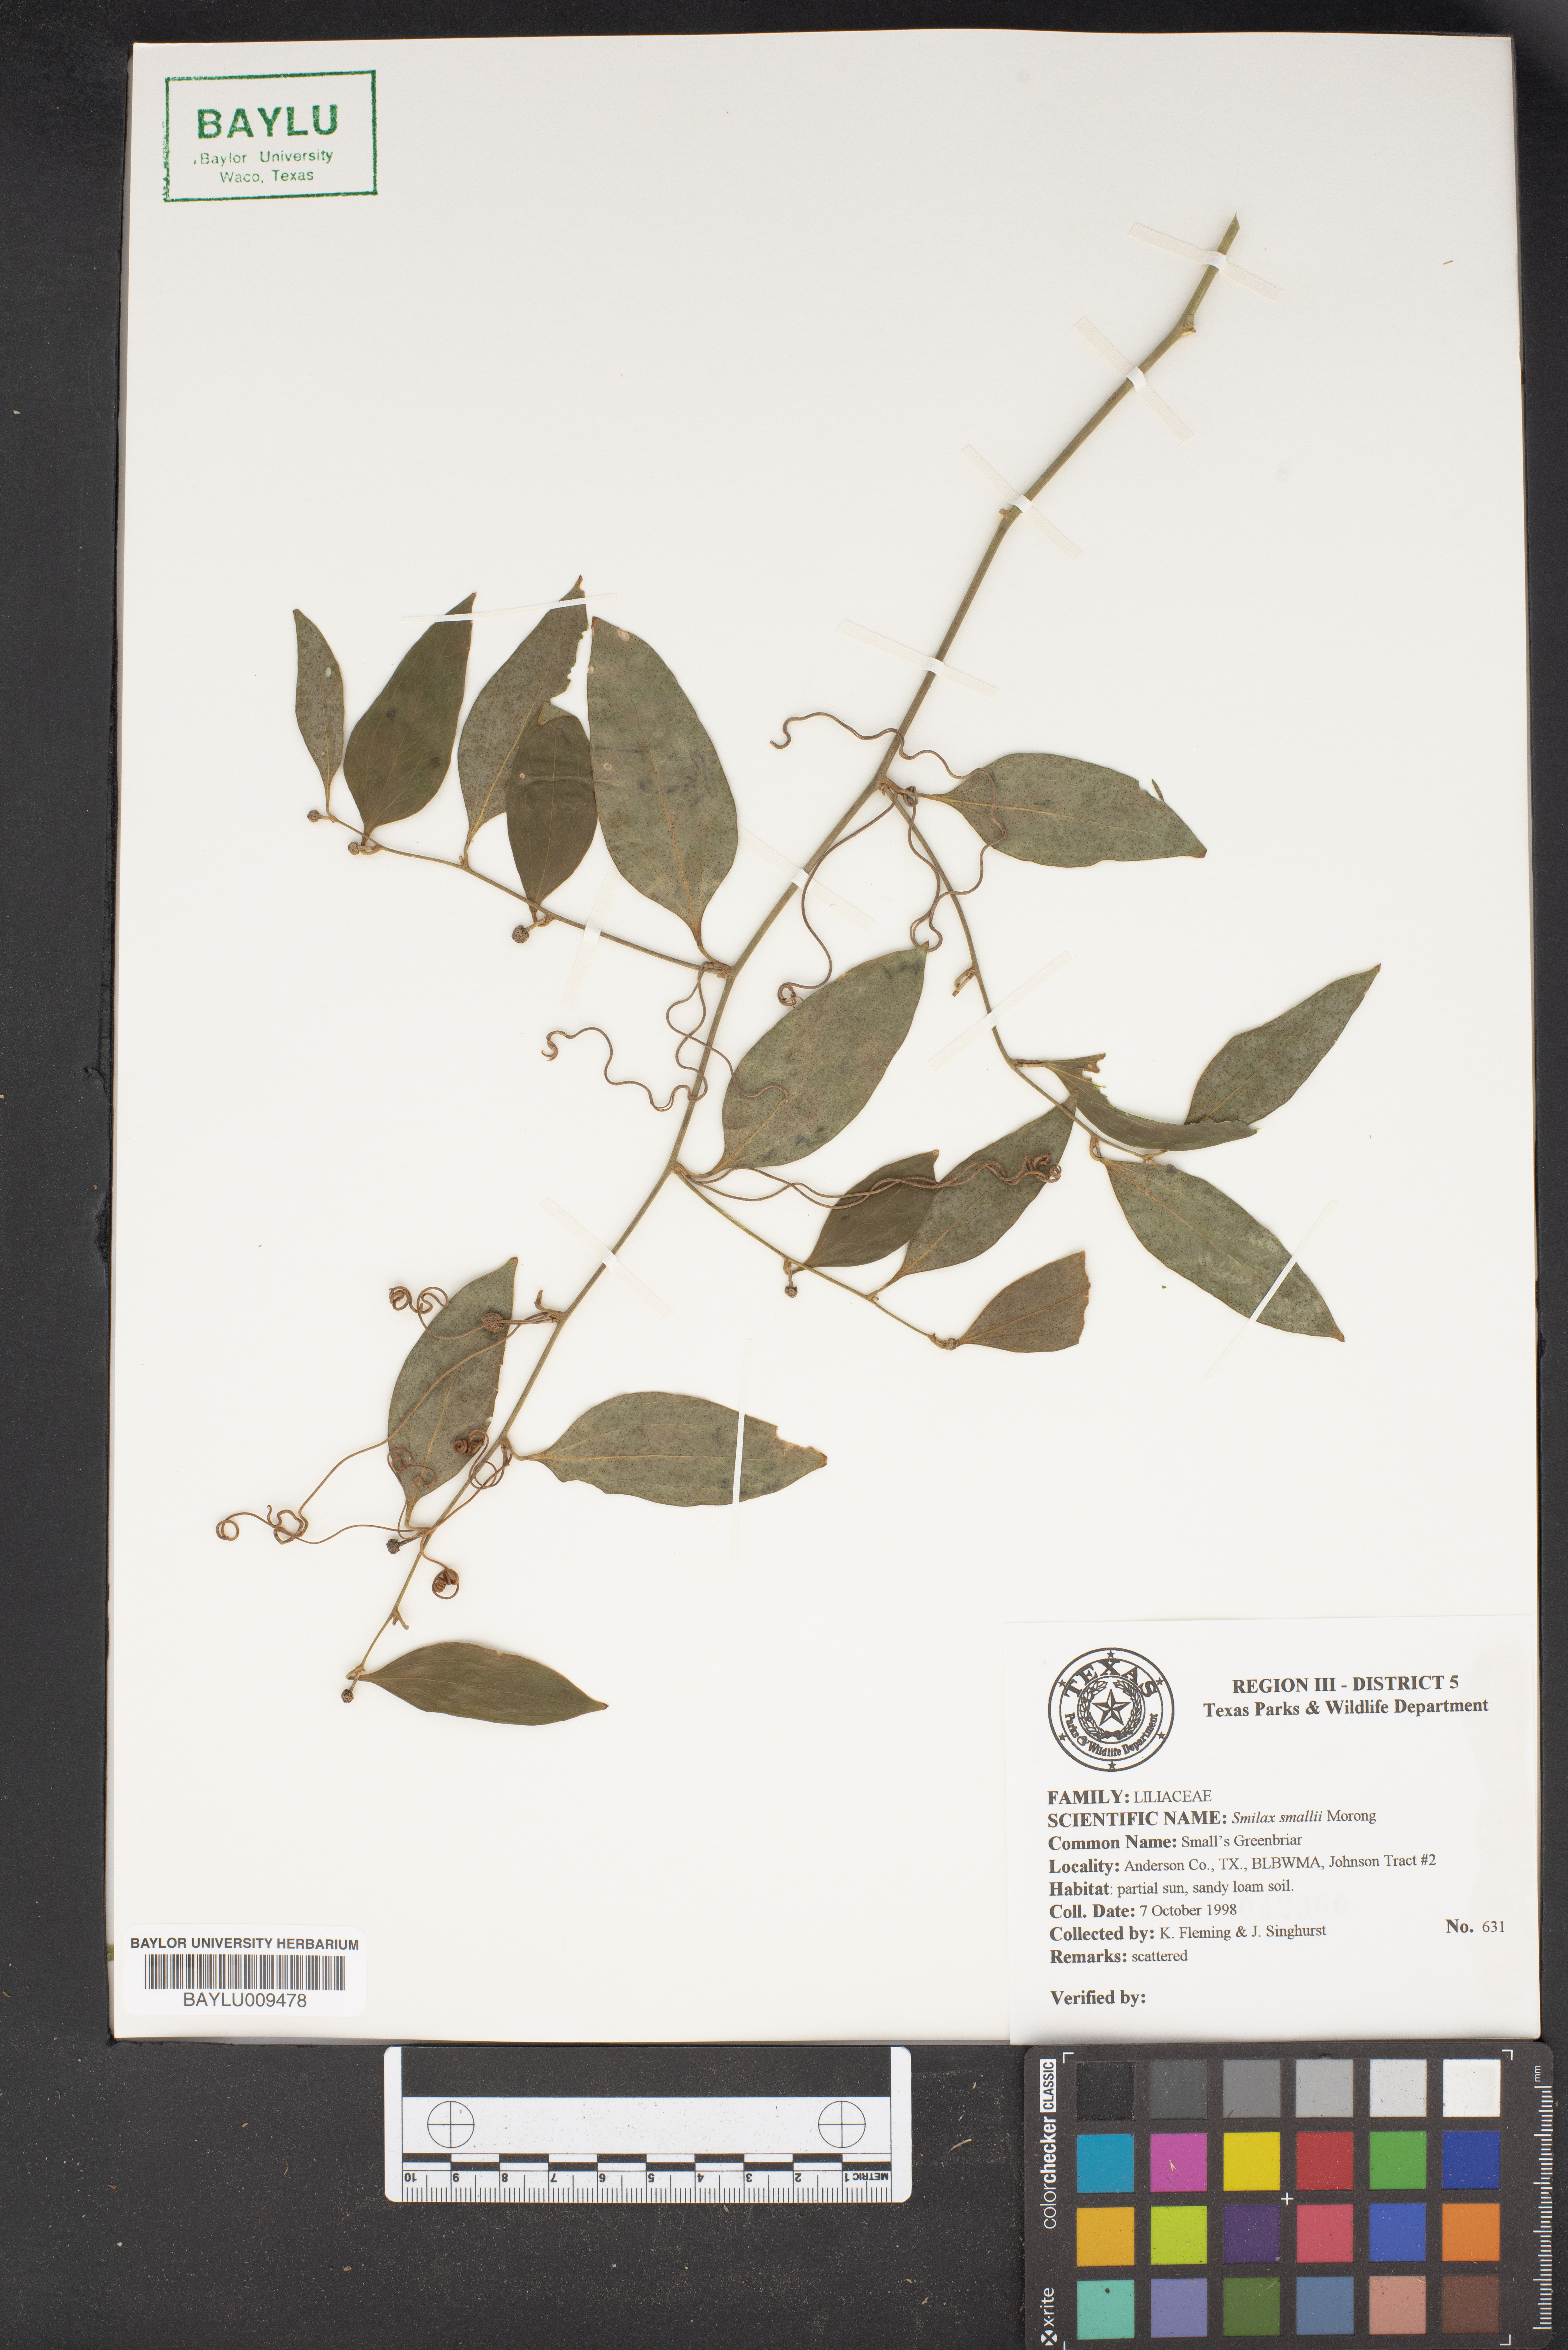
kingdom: Plantae
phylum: Tracheophyta
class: Liliopsida
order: Liliales
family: Smilacaceae
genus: Smilax
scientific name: Smilax maritima
